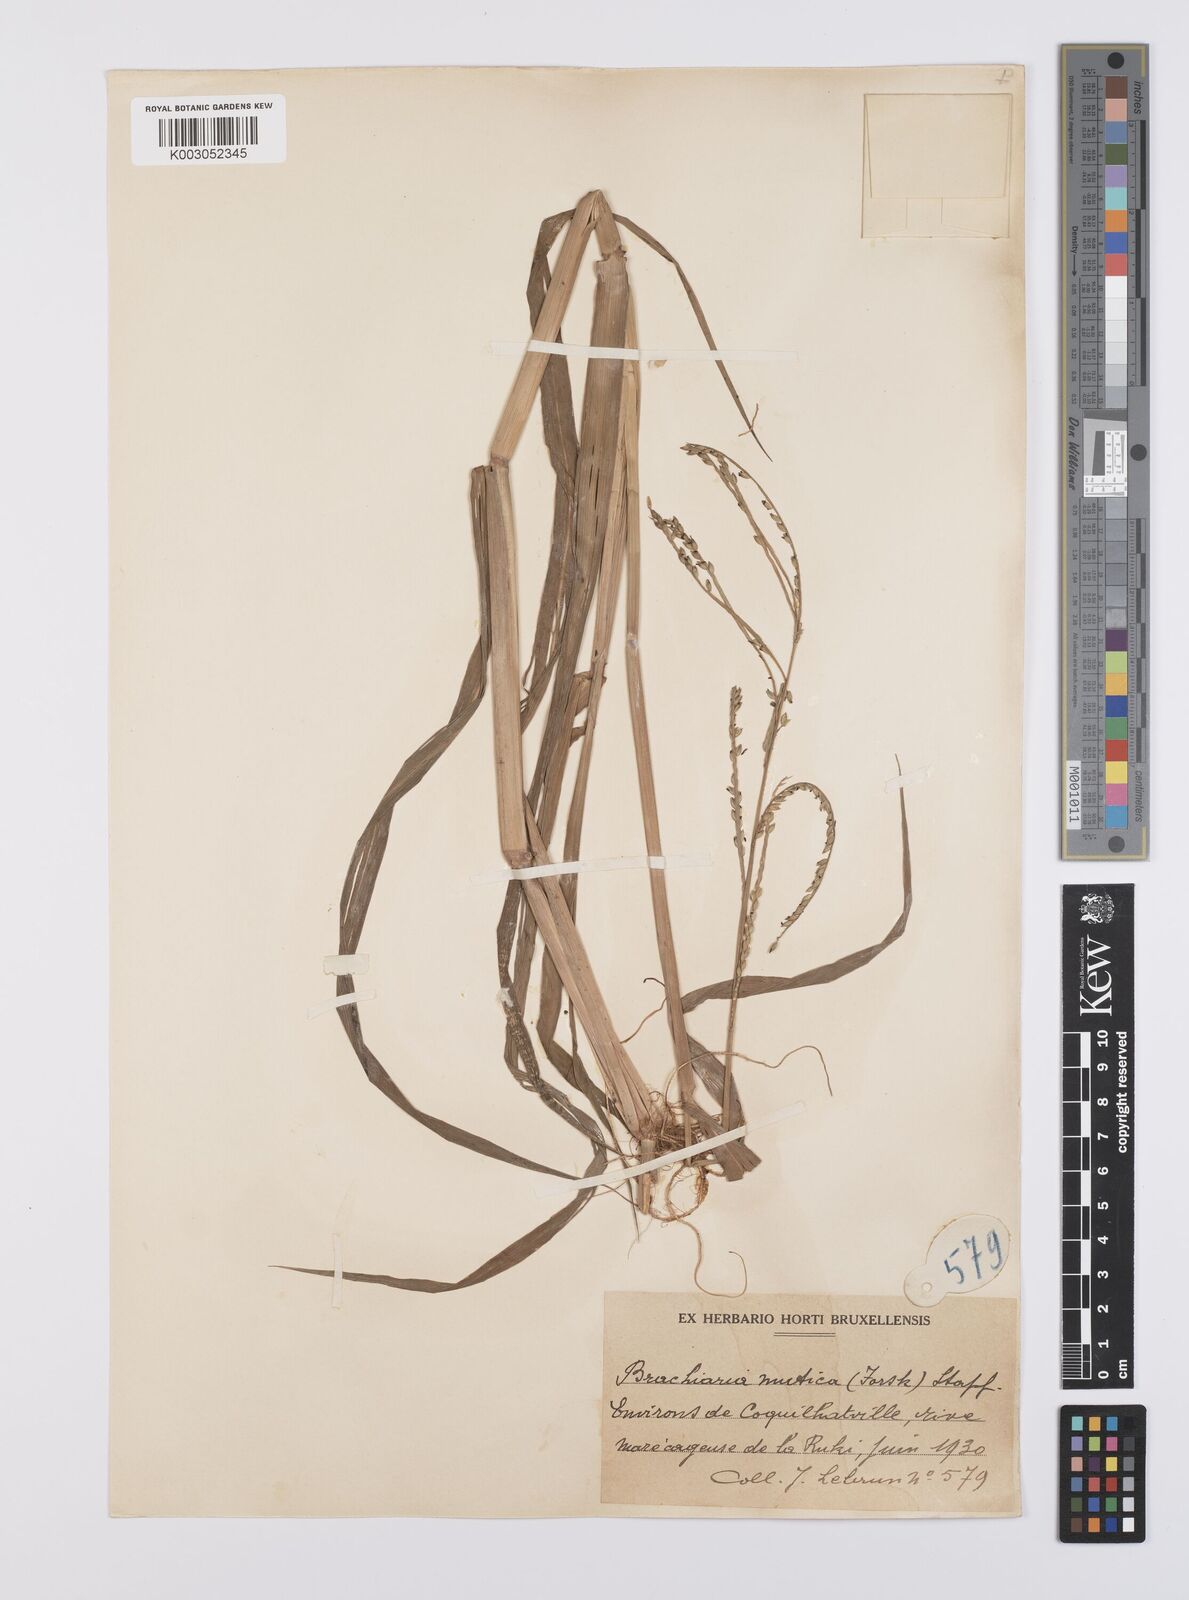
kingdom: Plantae
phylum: Tracheophyta
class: Liliopsida
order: Poales
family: Poaceae
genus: Urochloa
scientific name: Urochloa arrecta
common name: African signalgrass
